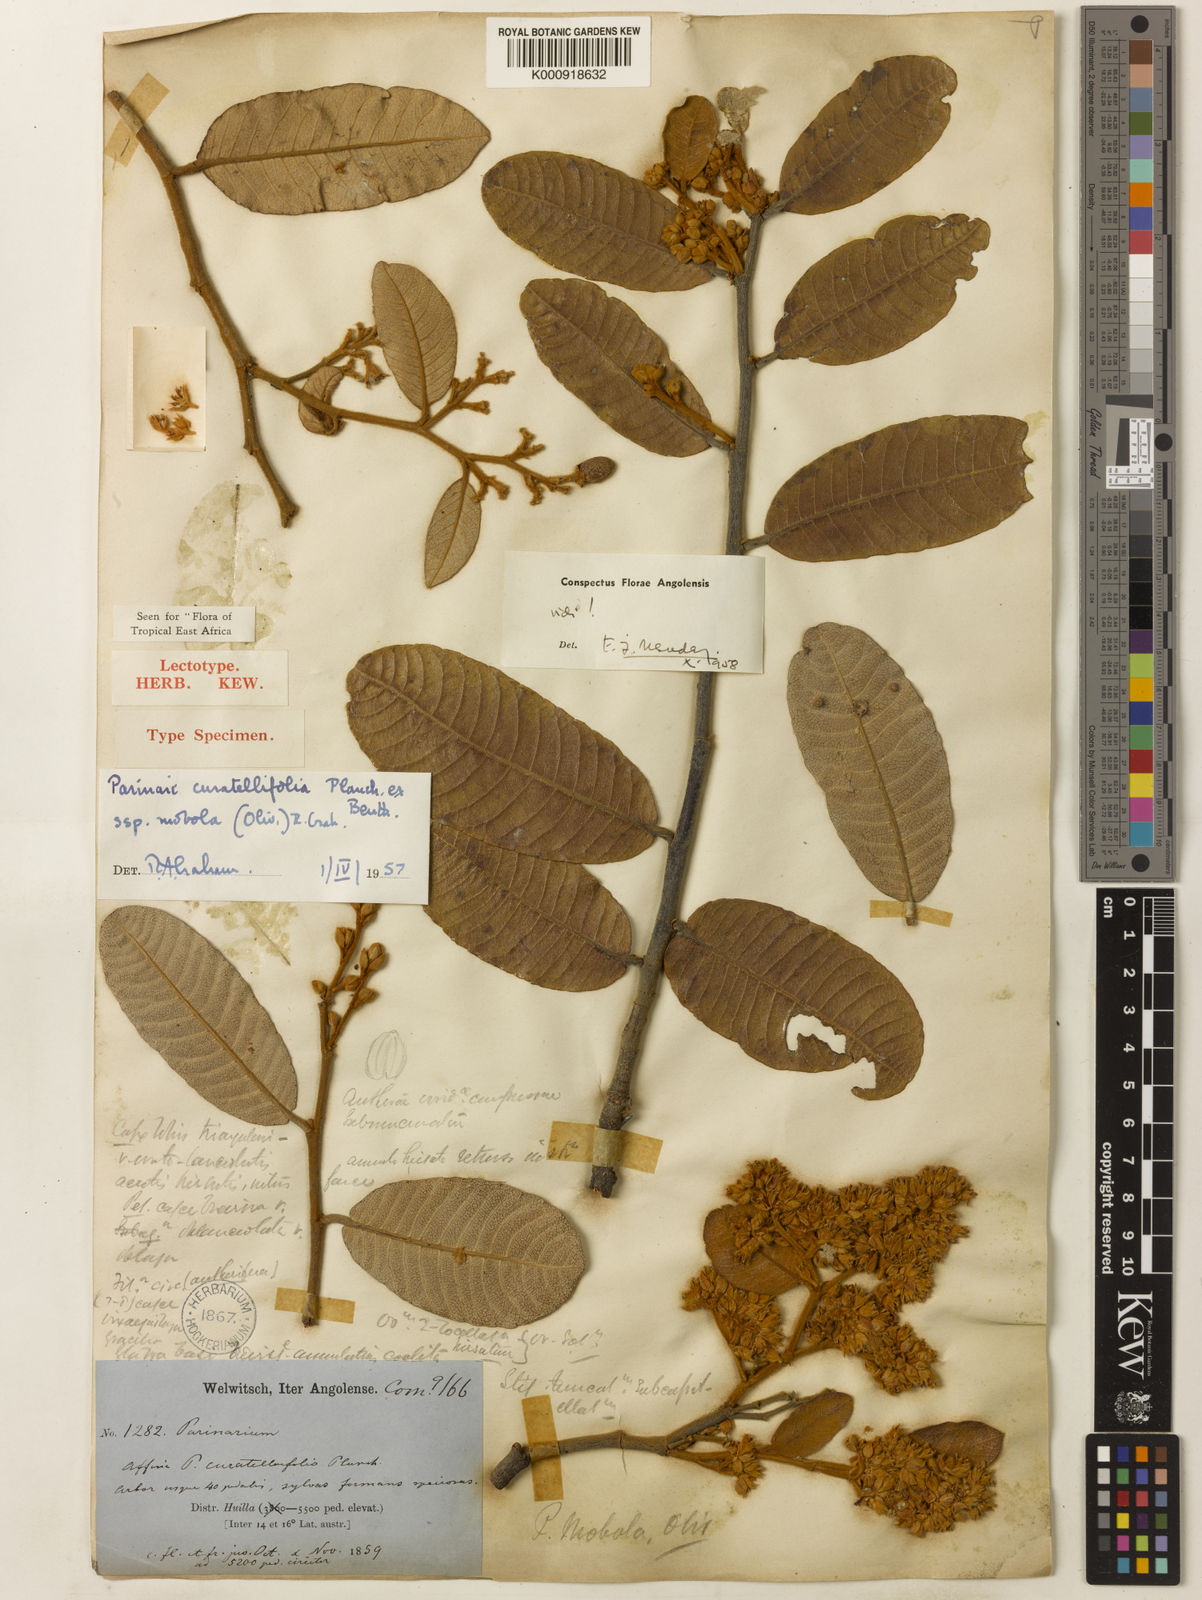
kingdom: Plantae
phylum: Tracheophyta
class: Magnoliopsida
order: Malpighiales
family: Chrysobalanaceae
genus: Parinari
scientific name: Parinari curatellifolia
